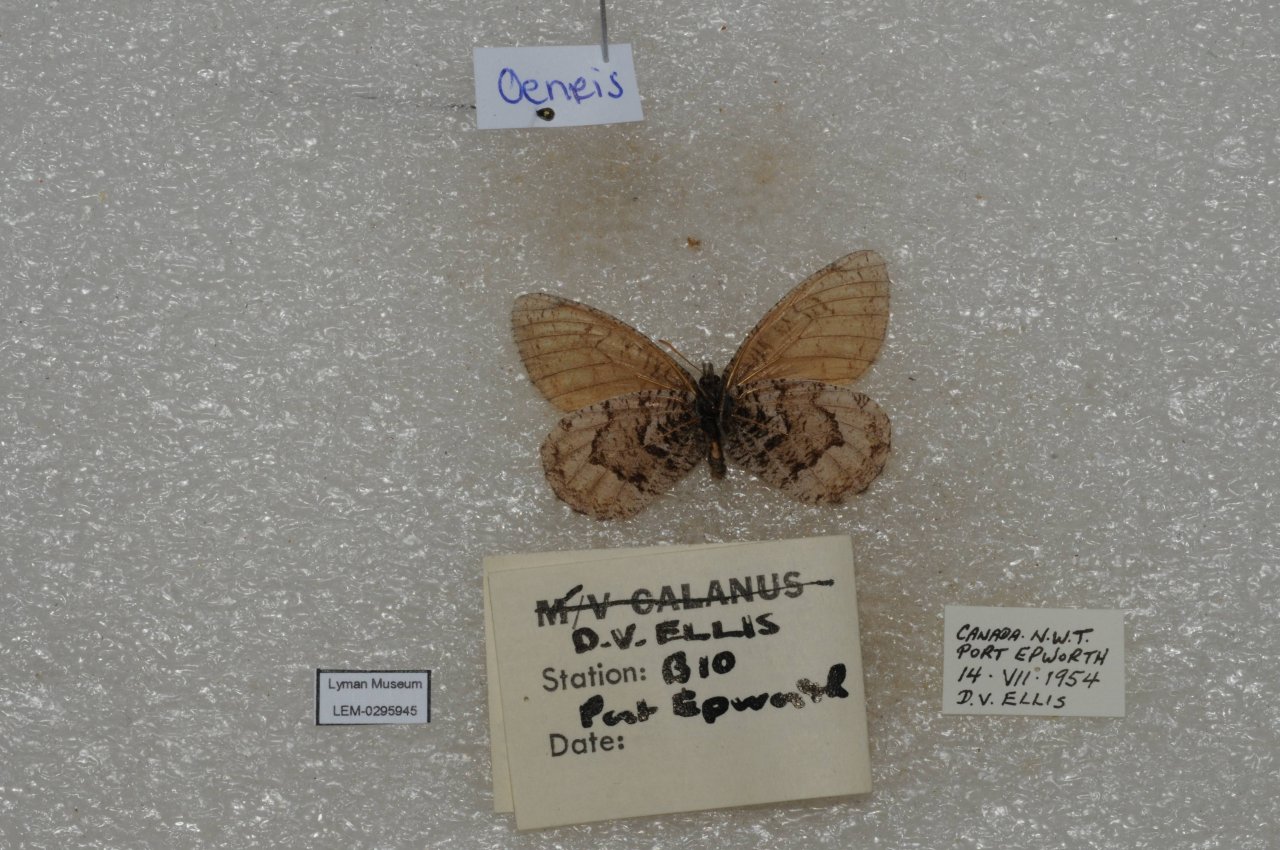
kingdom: Animalia
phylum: Arthropoda
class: Insecta
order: Lepidoptera
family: Nymphalidae
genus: Oeneis
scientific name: Oeneis bore
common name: White-veined Arctic
